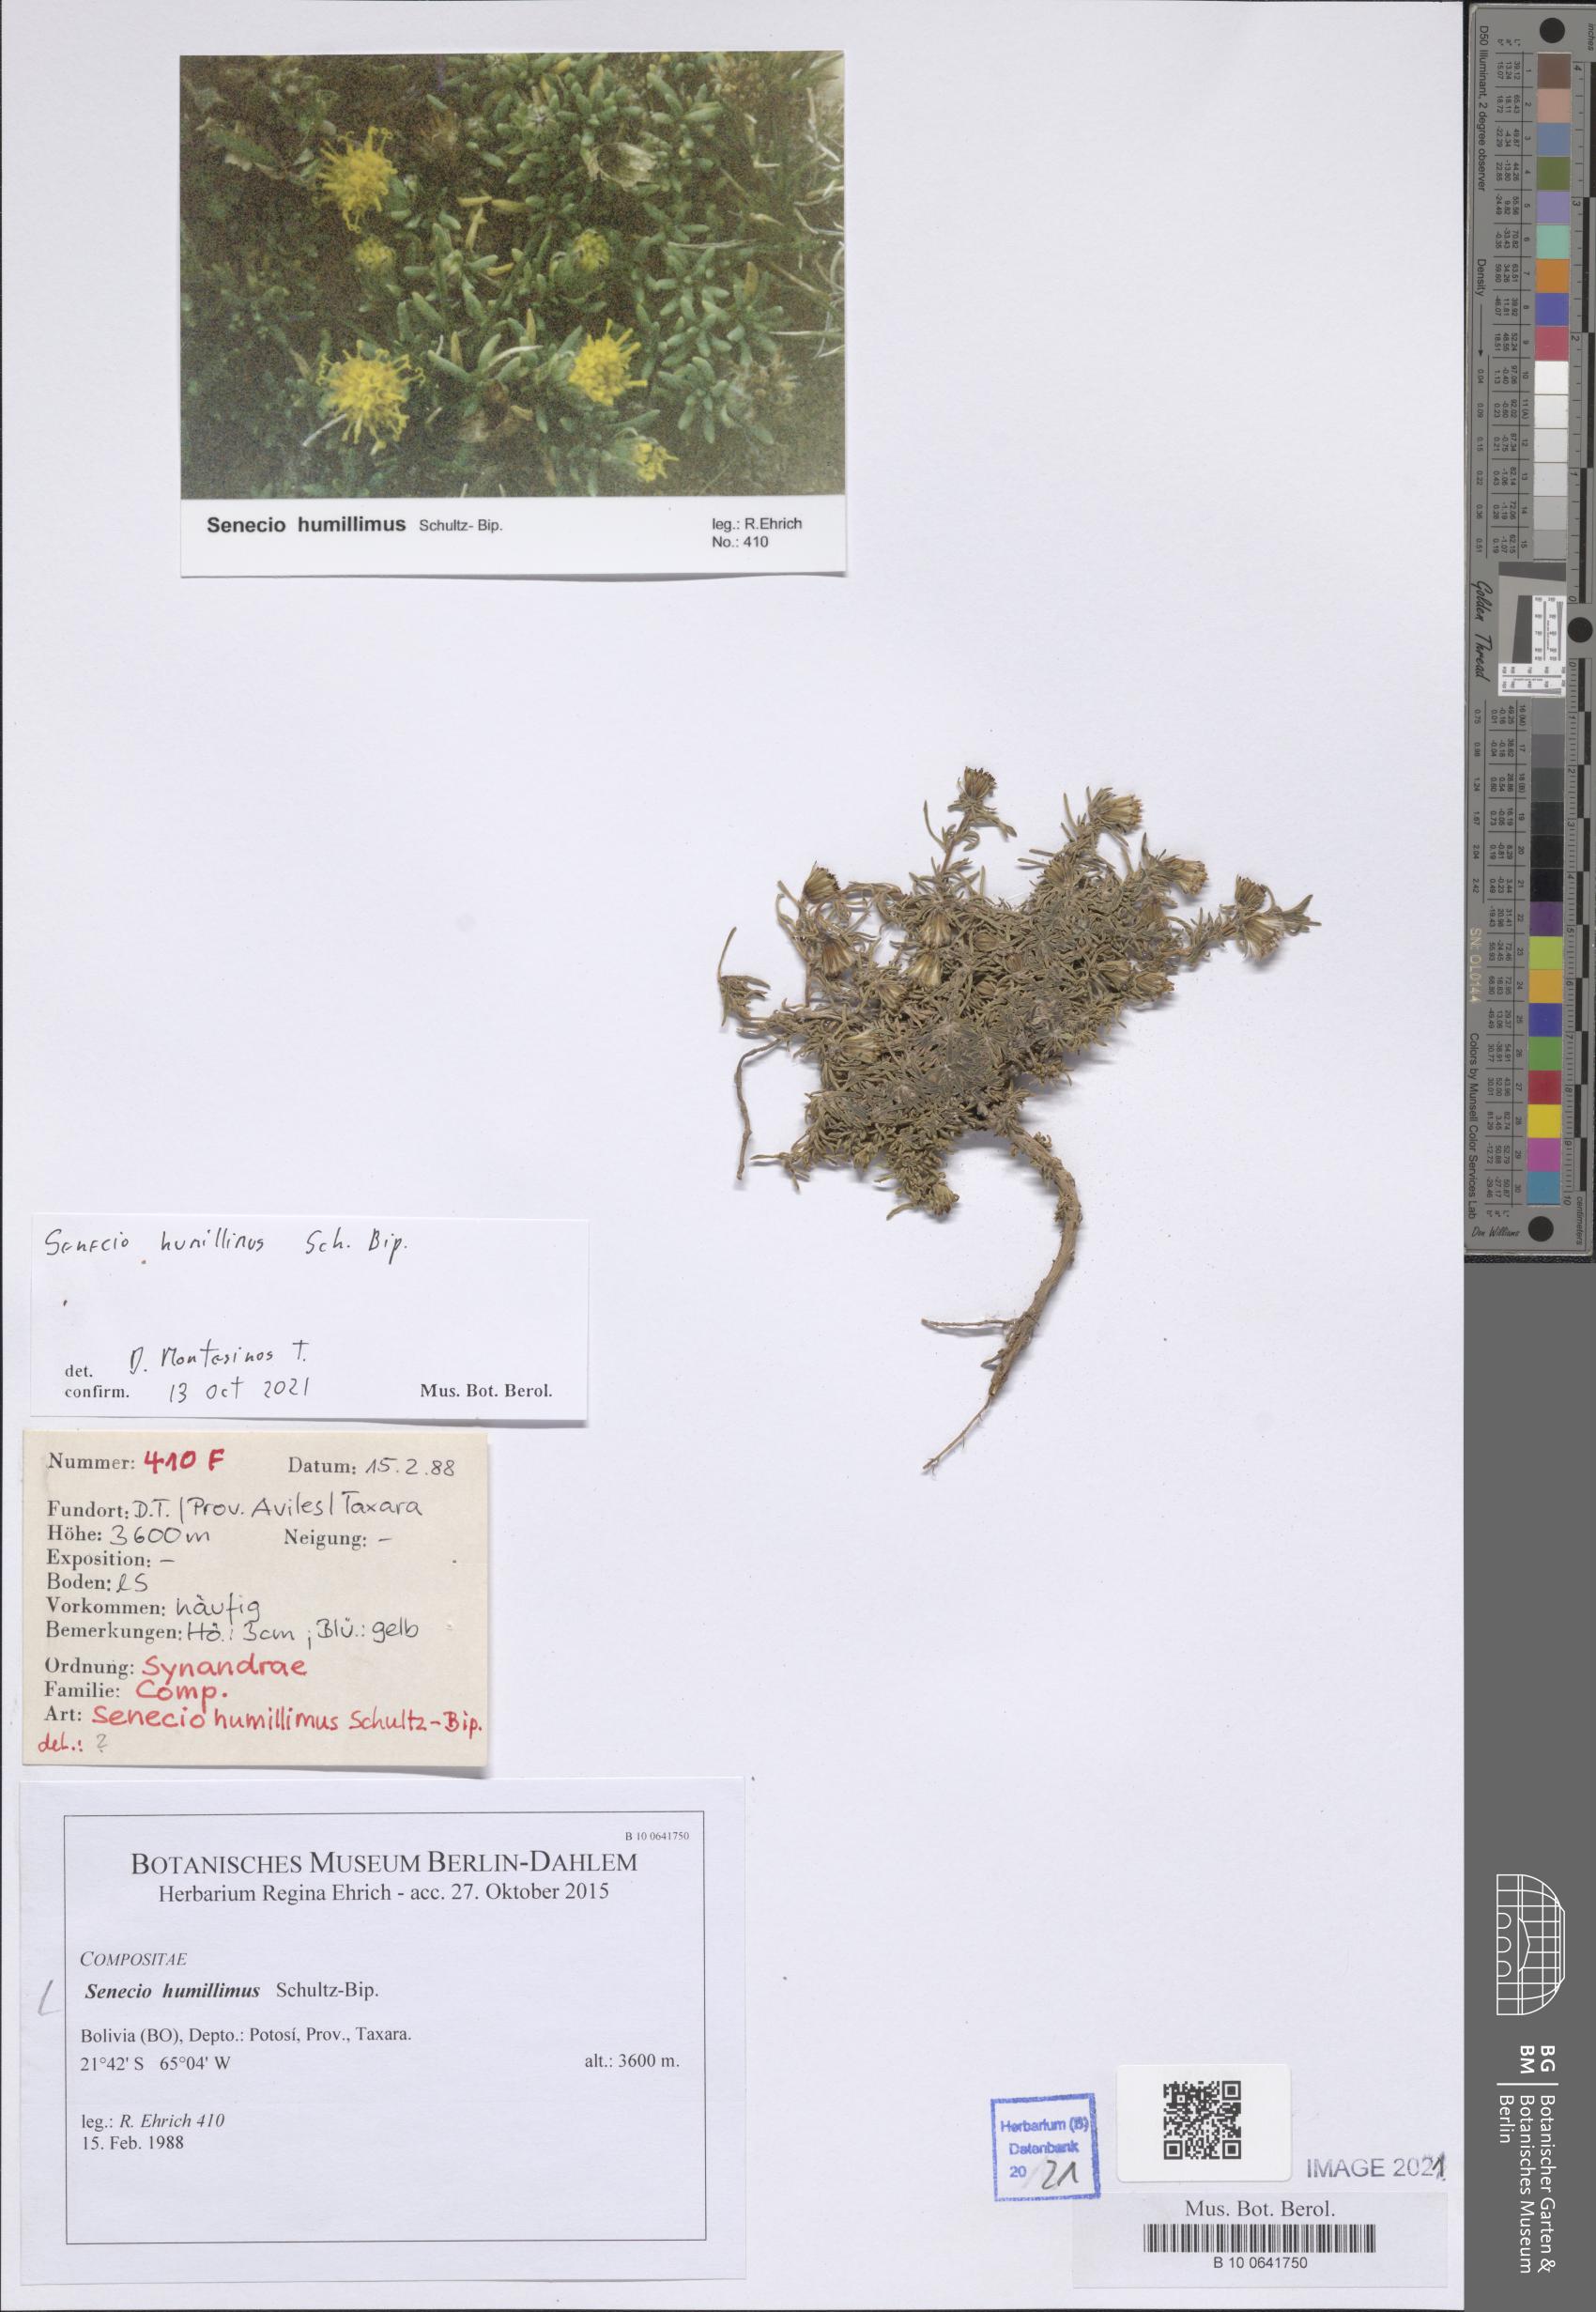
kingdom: Plantae
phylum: Tracheophyta
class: Magnoliopsida
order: Asterales
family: Asteraceae
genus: Senecio
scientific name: Senecio humillimus
